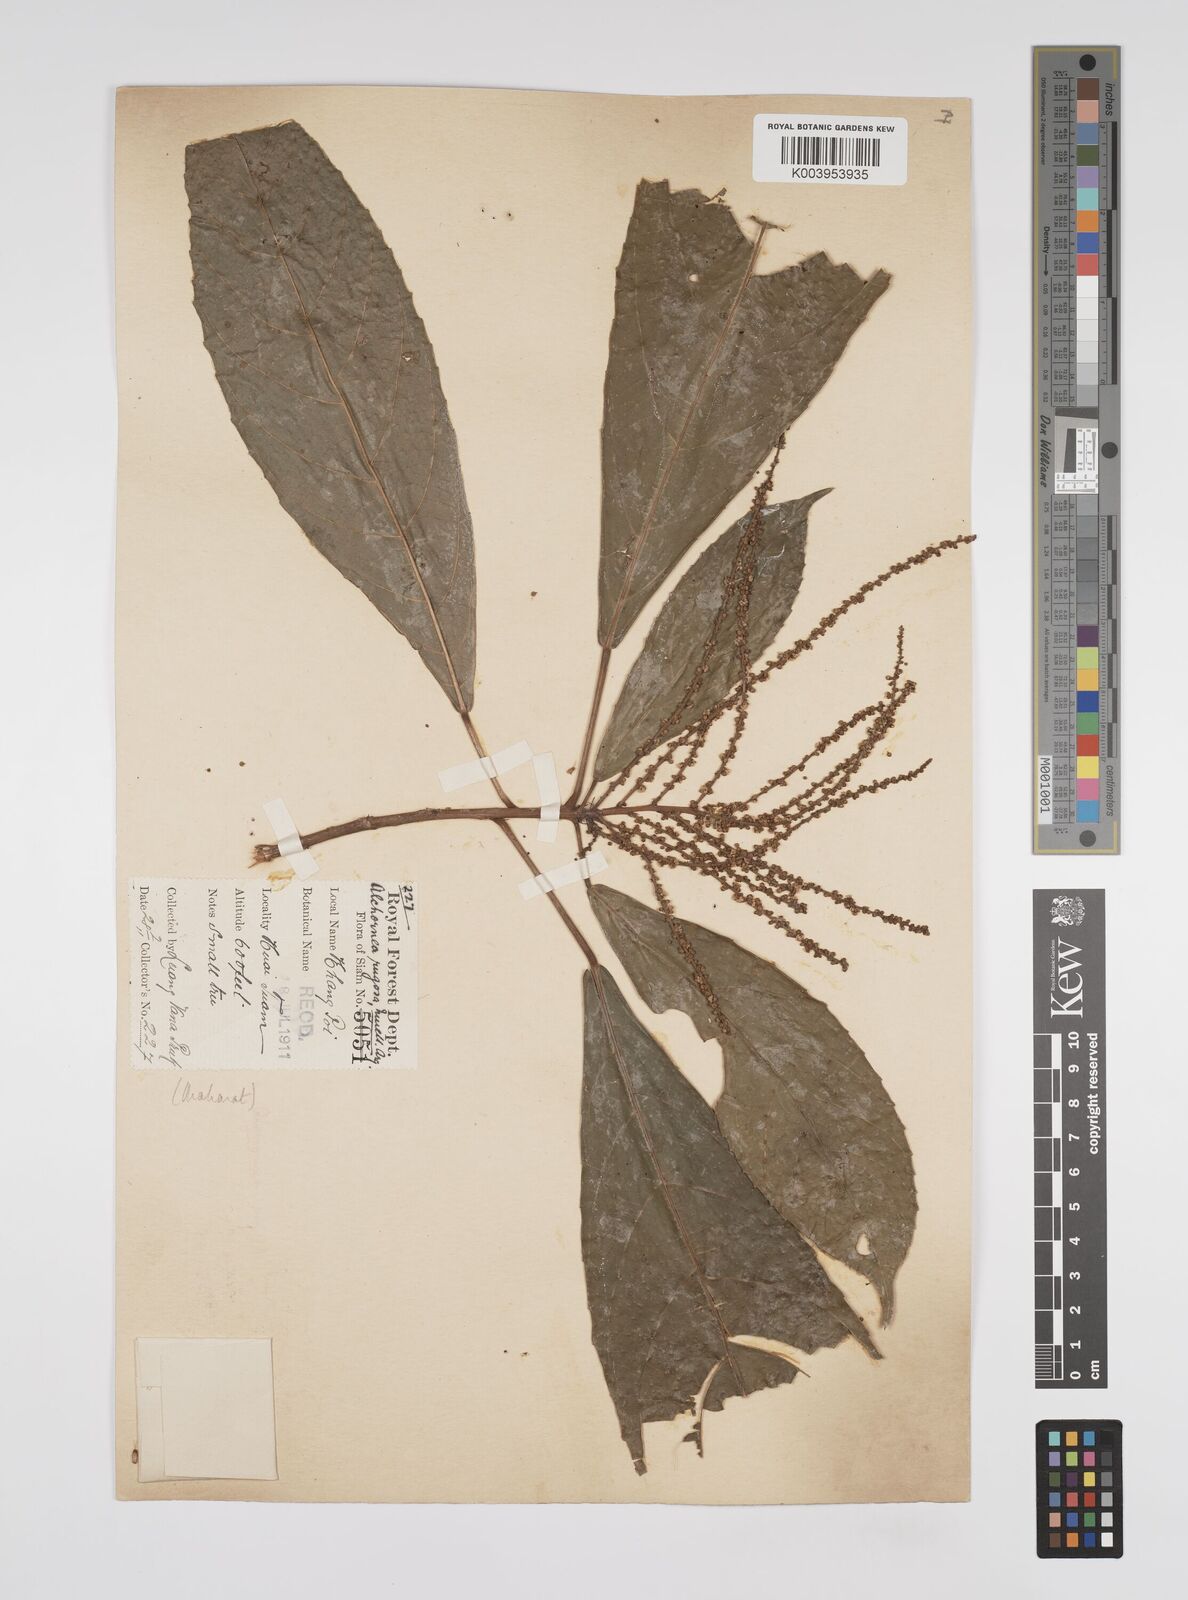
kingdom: Plantae
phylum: Tracheophyta
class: Magnoliopsida
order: Malpighiales
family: Euphorbiaceae
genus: Alchornea
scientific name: Alchornea rugosa
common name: Alchorntree
